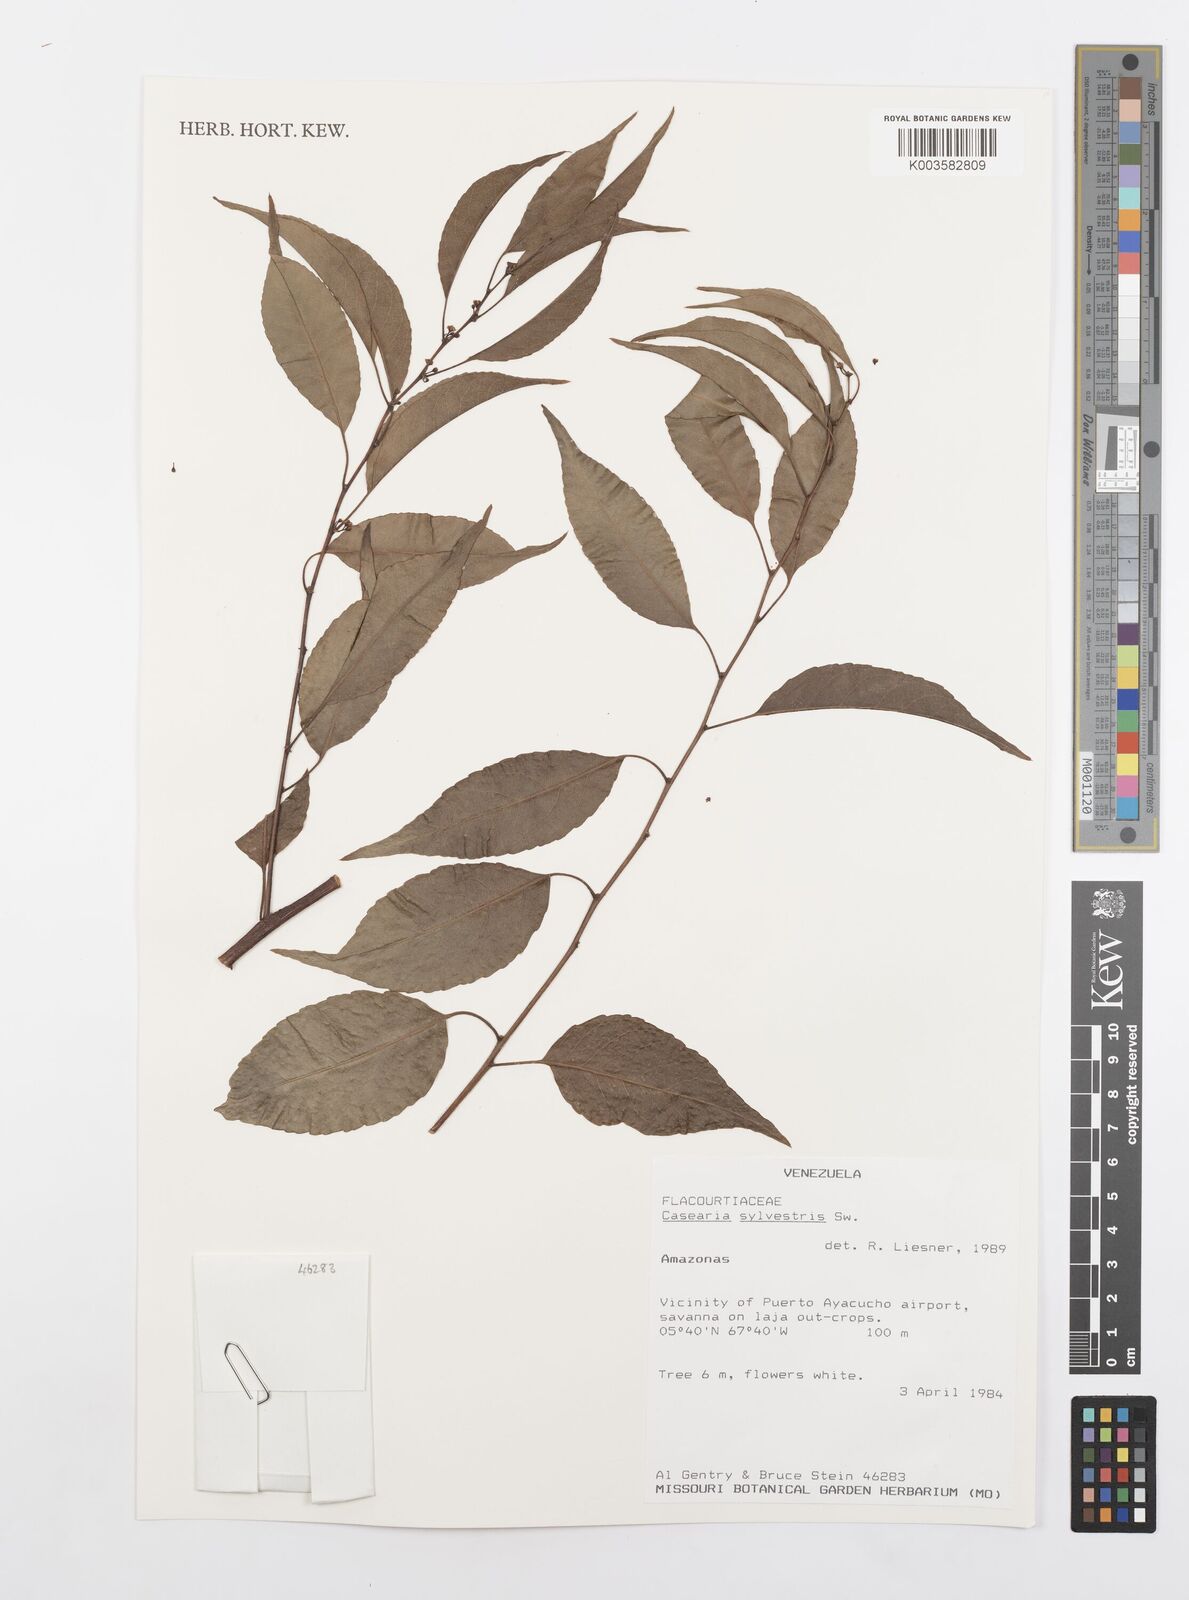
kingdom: Plantae
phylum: Tracheophyta
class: Magnoliopsida
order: Malpighiales
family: Salicaceae
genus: Casearia
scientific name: Casearia sylvestris
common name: Wild sage
